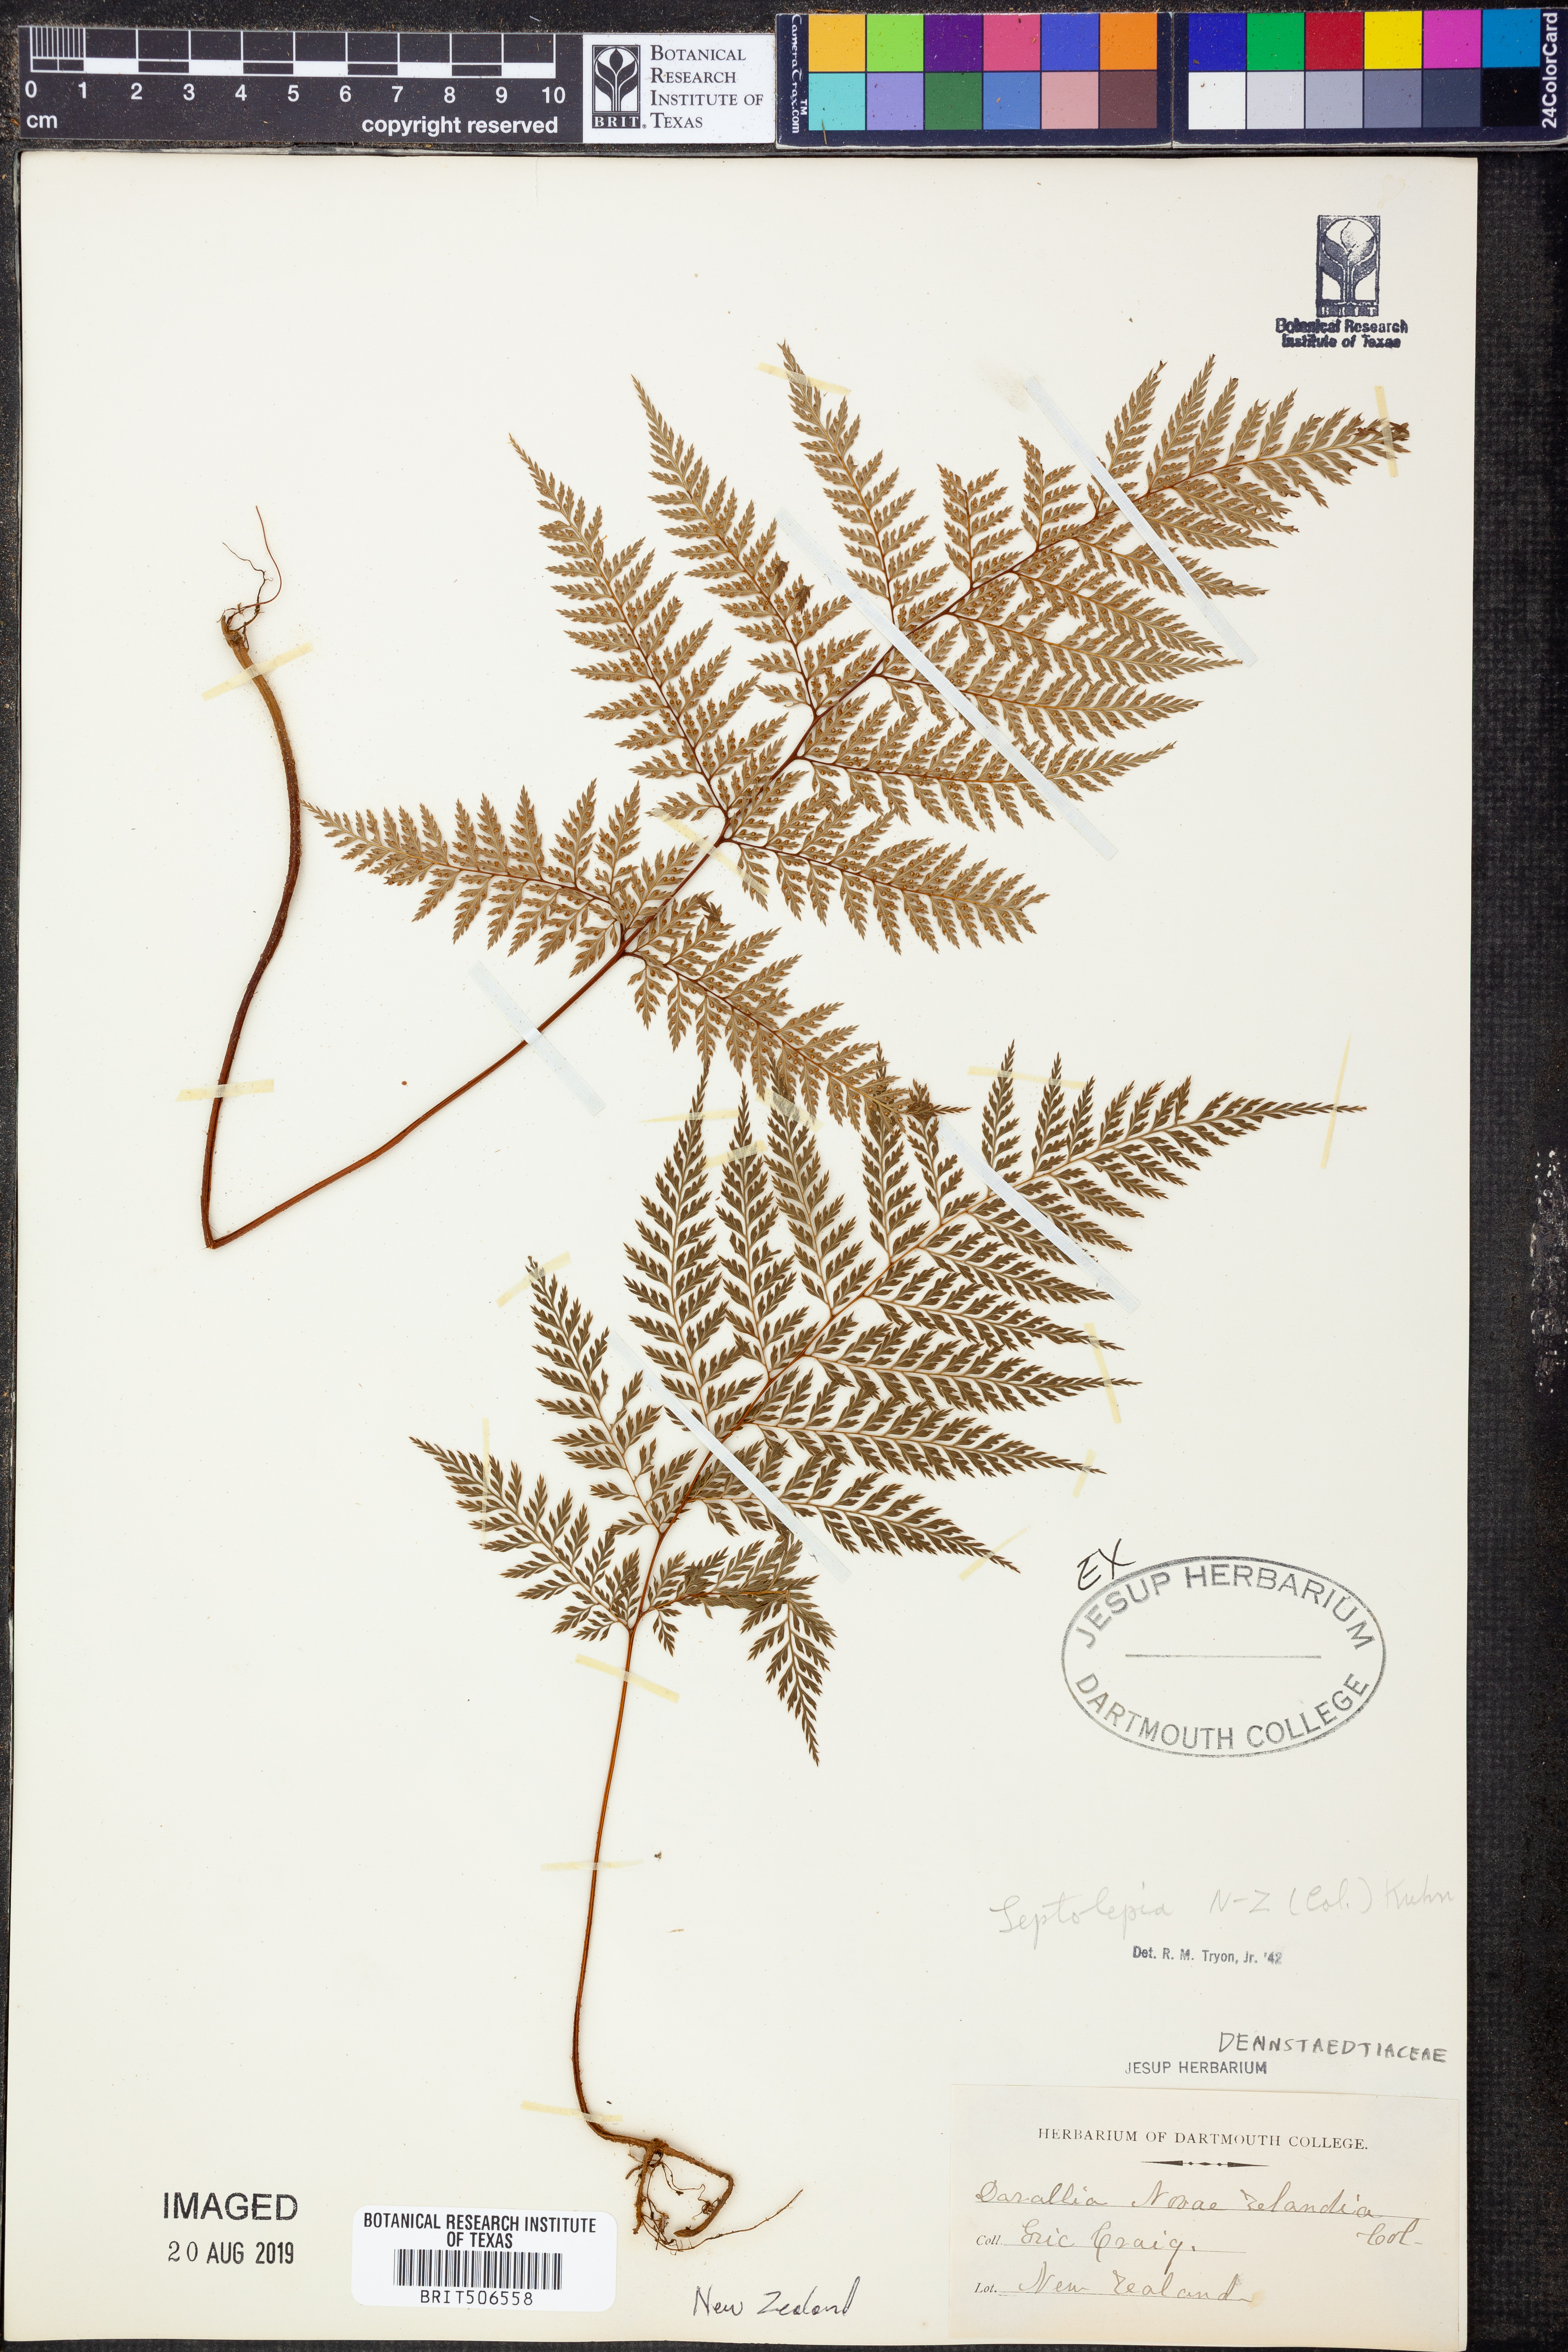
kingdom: Plantae
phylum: Tracheophyta
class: Polypodiopsida
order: Polypodiales
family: Dennstaedtiaceae
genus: Dennstaedtia
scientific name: Dennstaedtia novae-zelandiae
